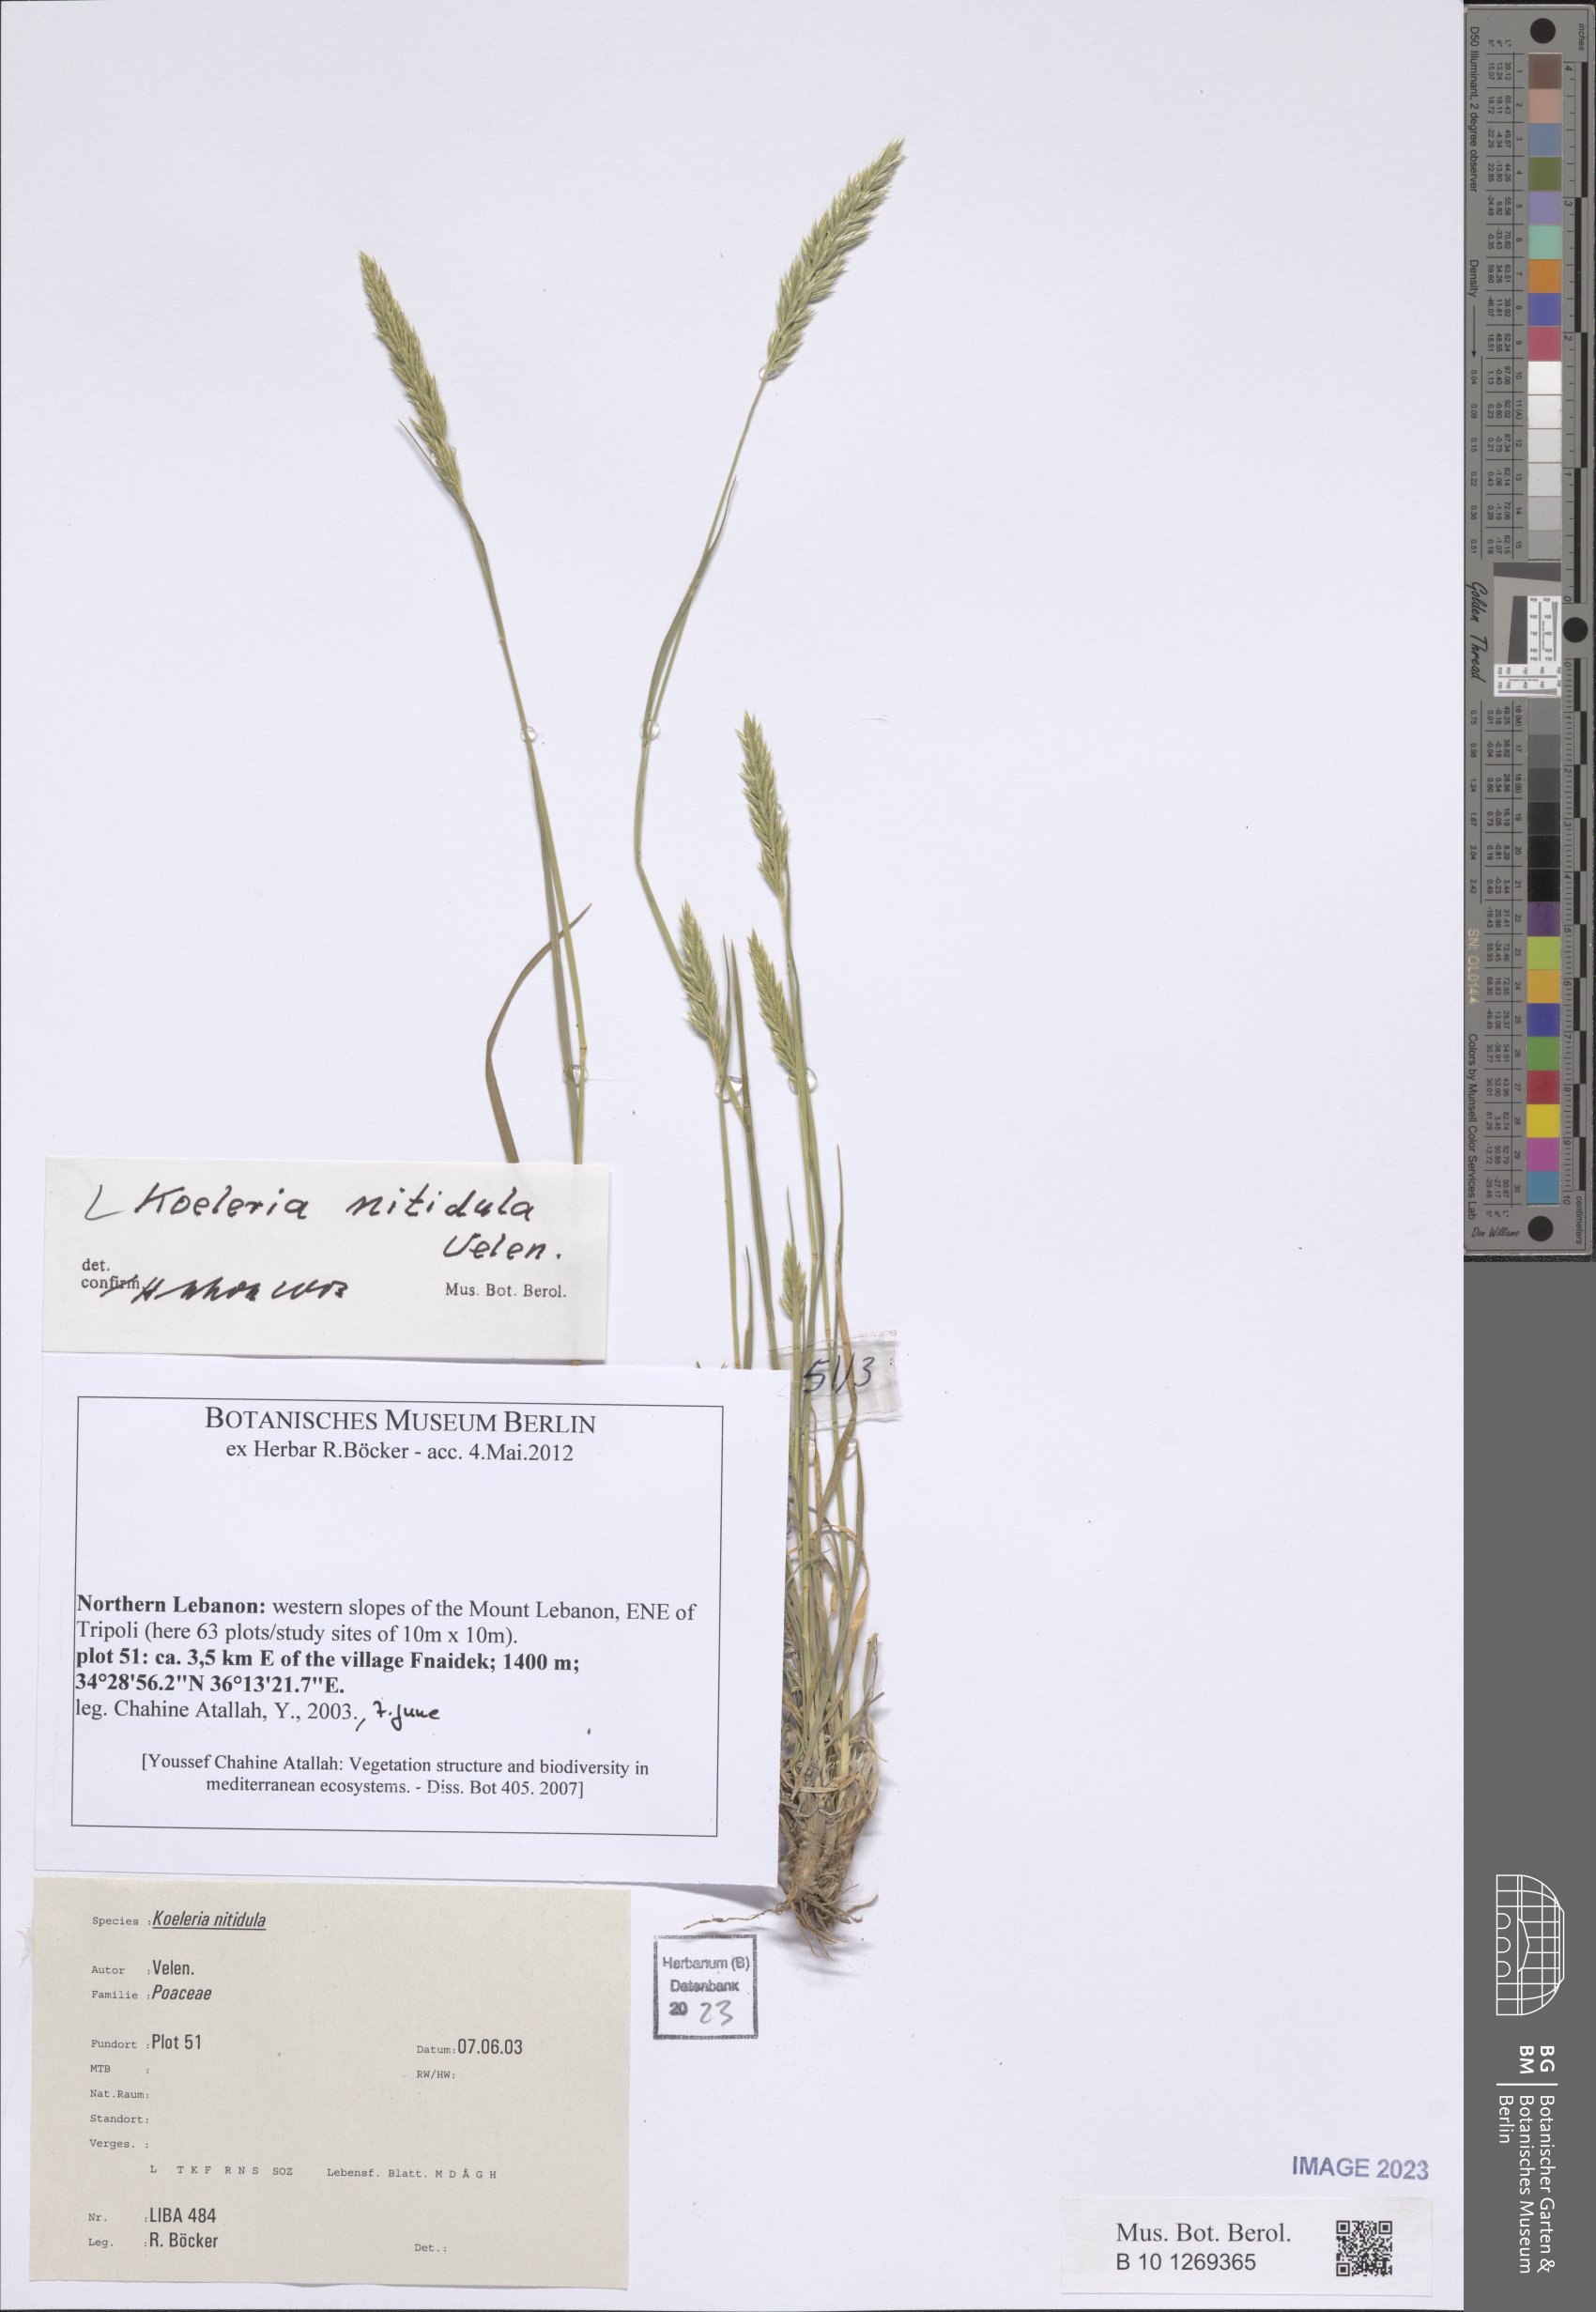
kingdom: Plantae
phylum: Tracheophyta
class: Liliopsida
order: Poales
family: Poaceae
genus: Koeleria
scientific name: Koeleria nitidula
